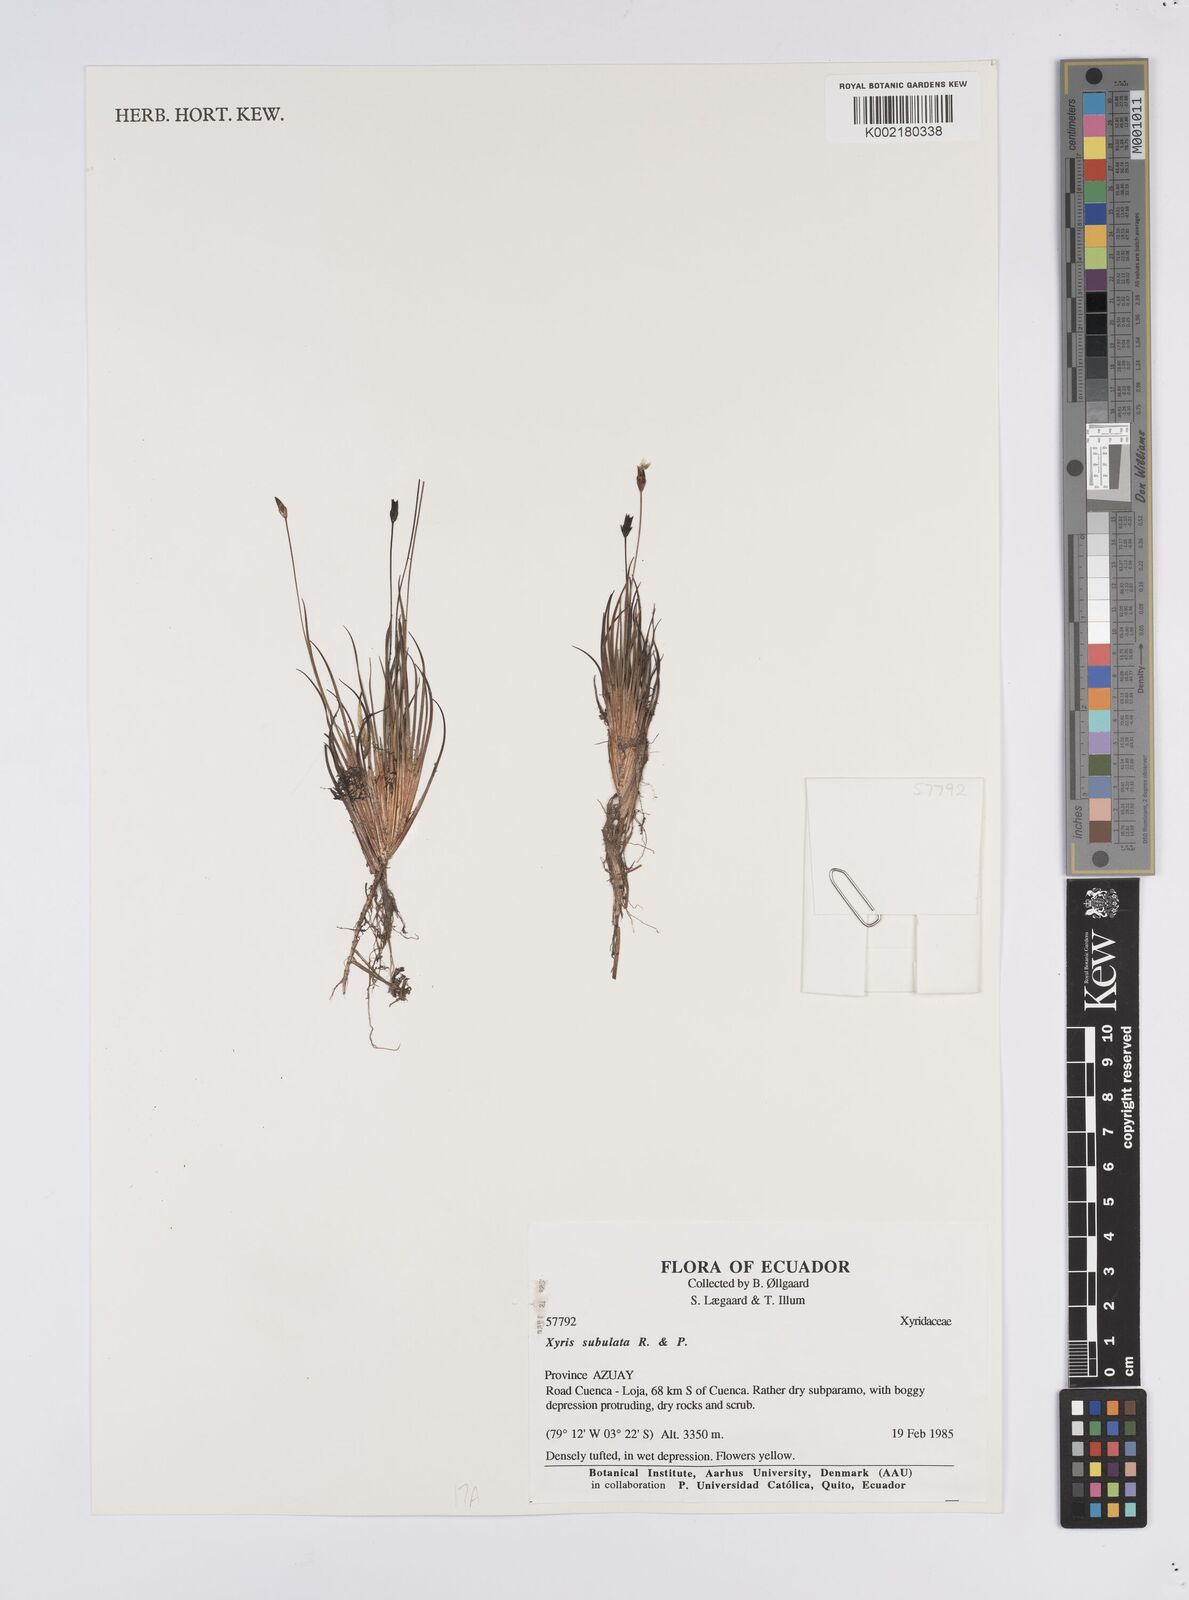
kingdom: Plantae
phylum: Tracheophyta
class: Liliopsida
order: Poales
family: Xyridaceae
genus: Xyris
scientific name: Xyris subulata
